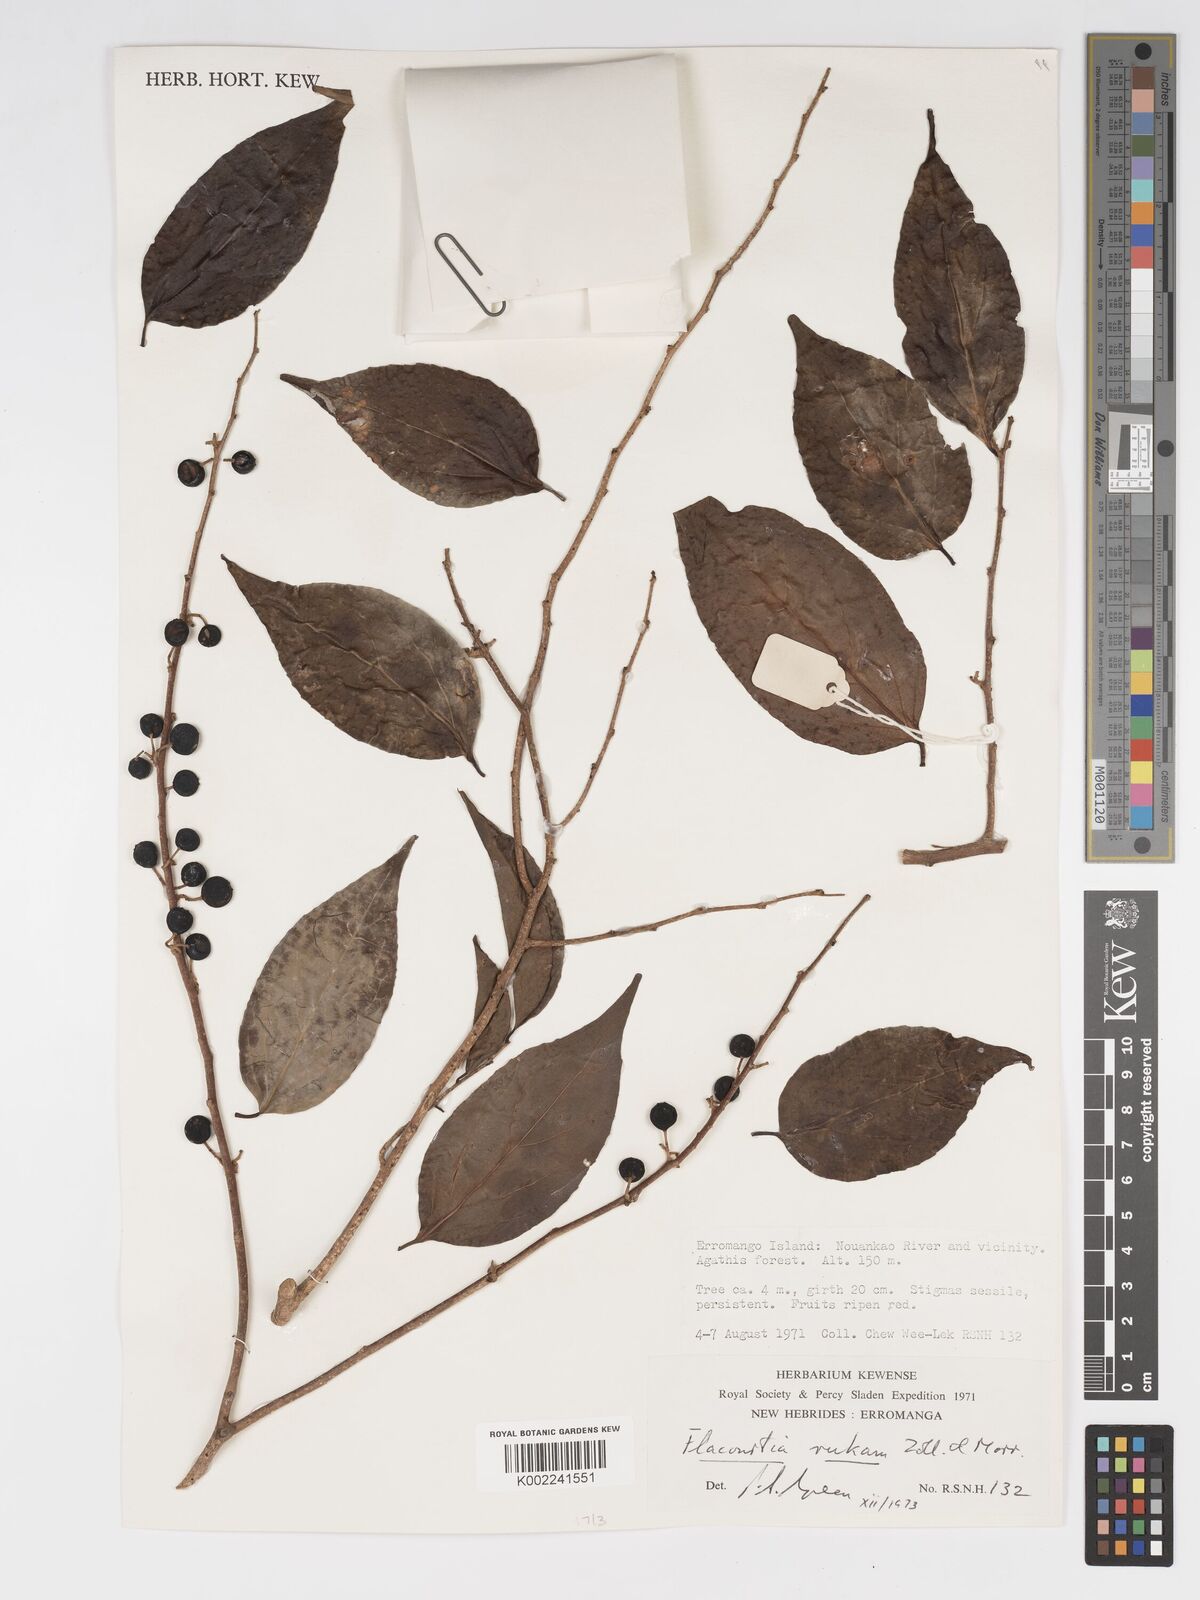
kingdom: Plantae
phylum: Tracheophyta
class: Magnoliopsida
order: Malpighiales
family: Salicaceae
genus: Flacourtia
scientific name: Flacourtia rukam
